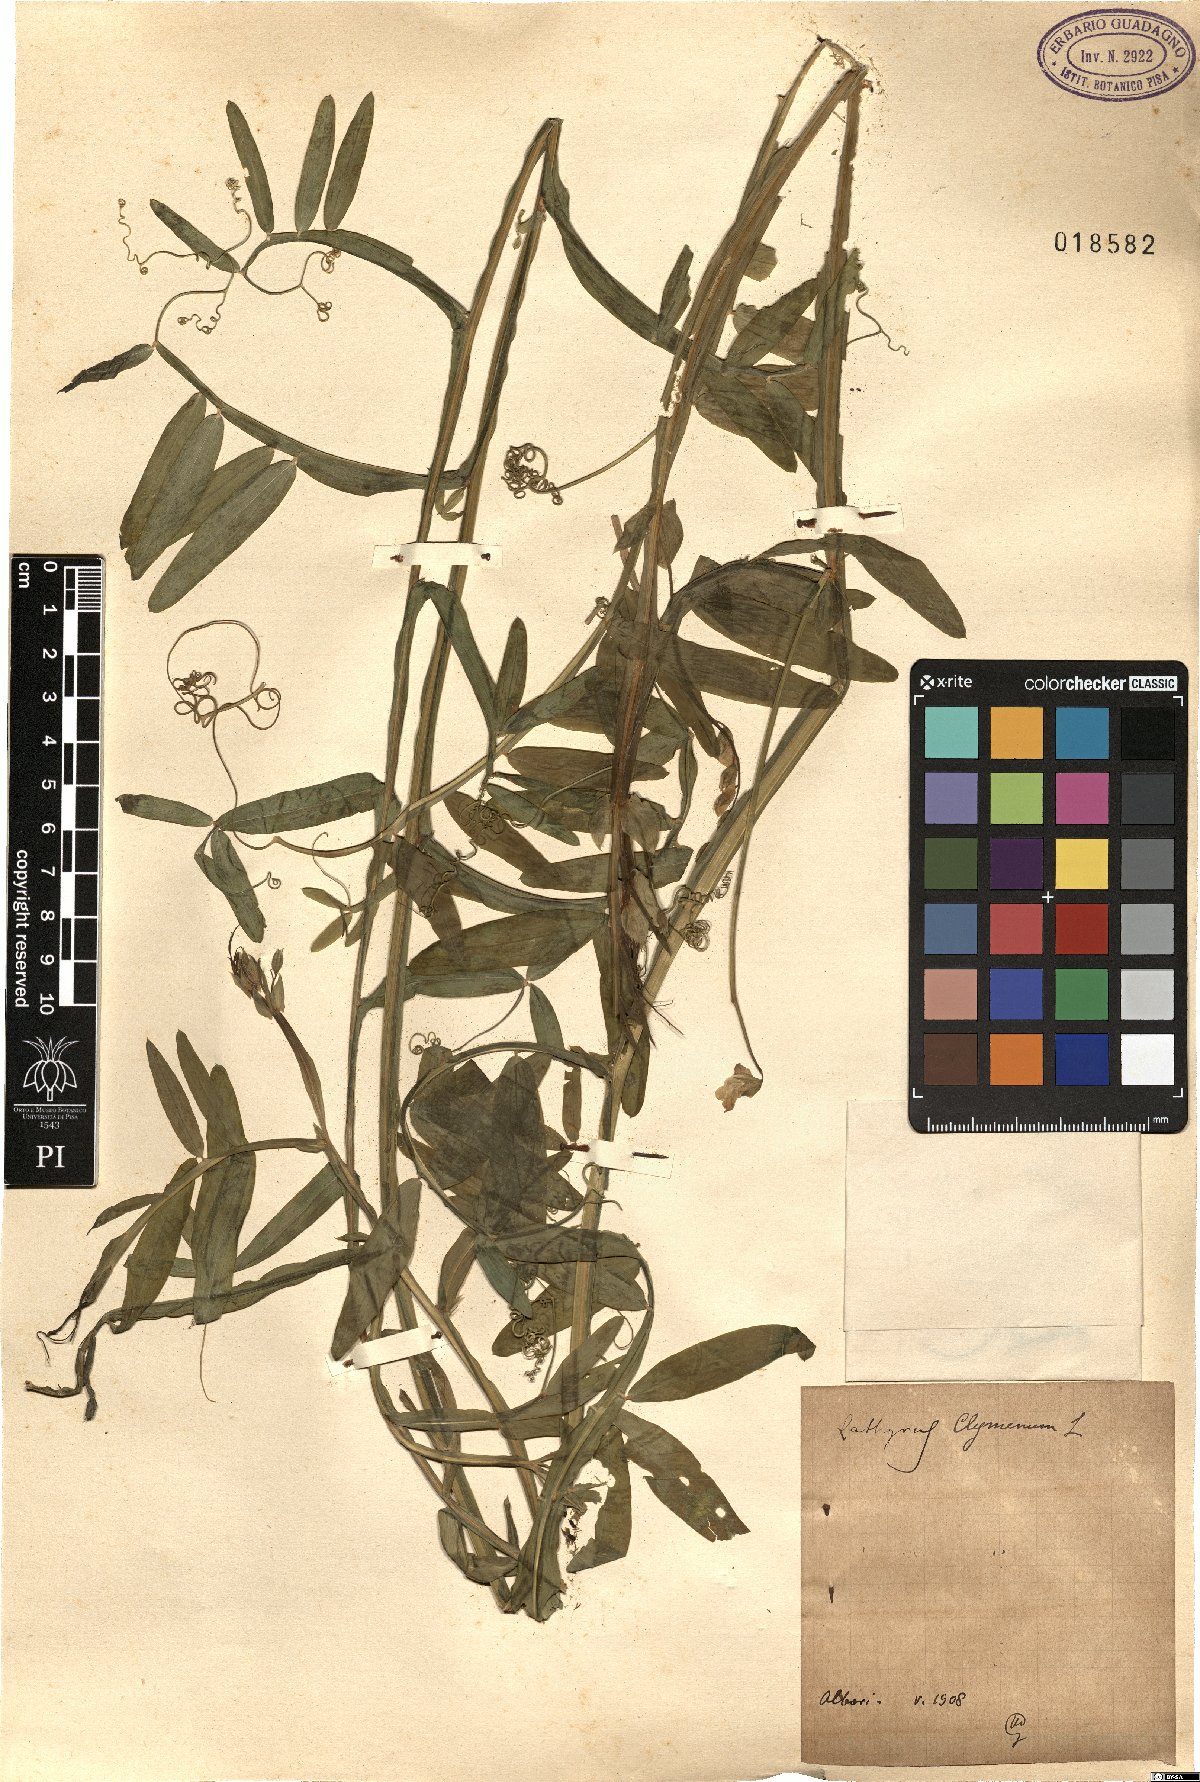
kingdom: Plantae
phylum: Tracheophyta
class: Magnoliopsida
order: Fabales
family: Fabaceae
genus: Lathyrus
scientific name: Lathyrus clymenum
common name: Spanish vetchling
